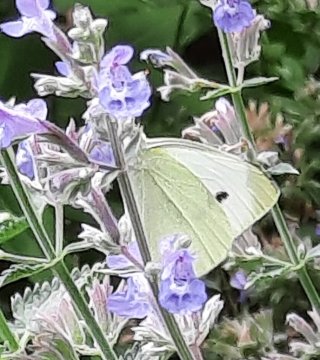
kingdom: Animalia
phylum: Arthropoda
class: Insecta
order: Lepidoptera
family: Pieridae
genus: Pieris
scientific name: Pieris rapae
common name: Cabbage White
